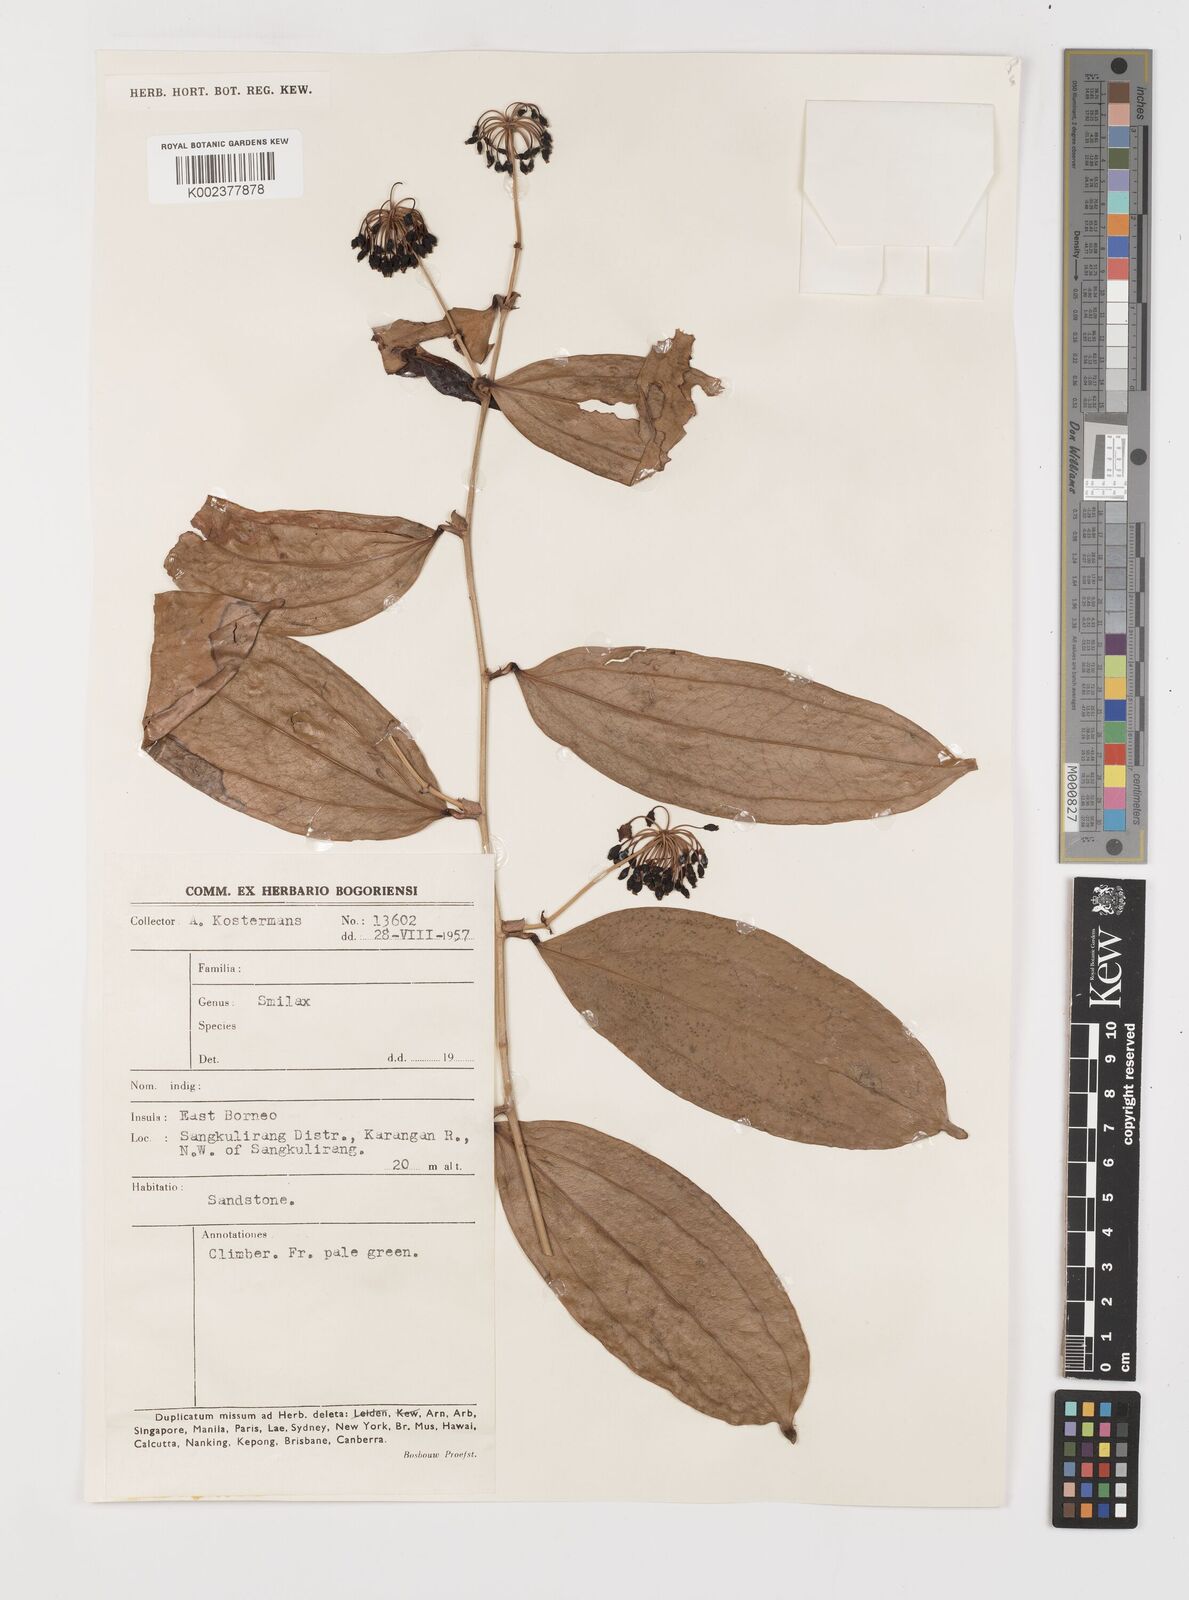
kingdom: Plantae
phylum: Tracheophyta
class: Liliopsida
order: Liliales
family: Smilacaceae
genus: Smilax
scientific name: Smilax
